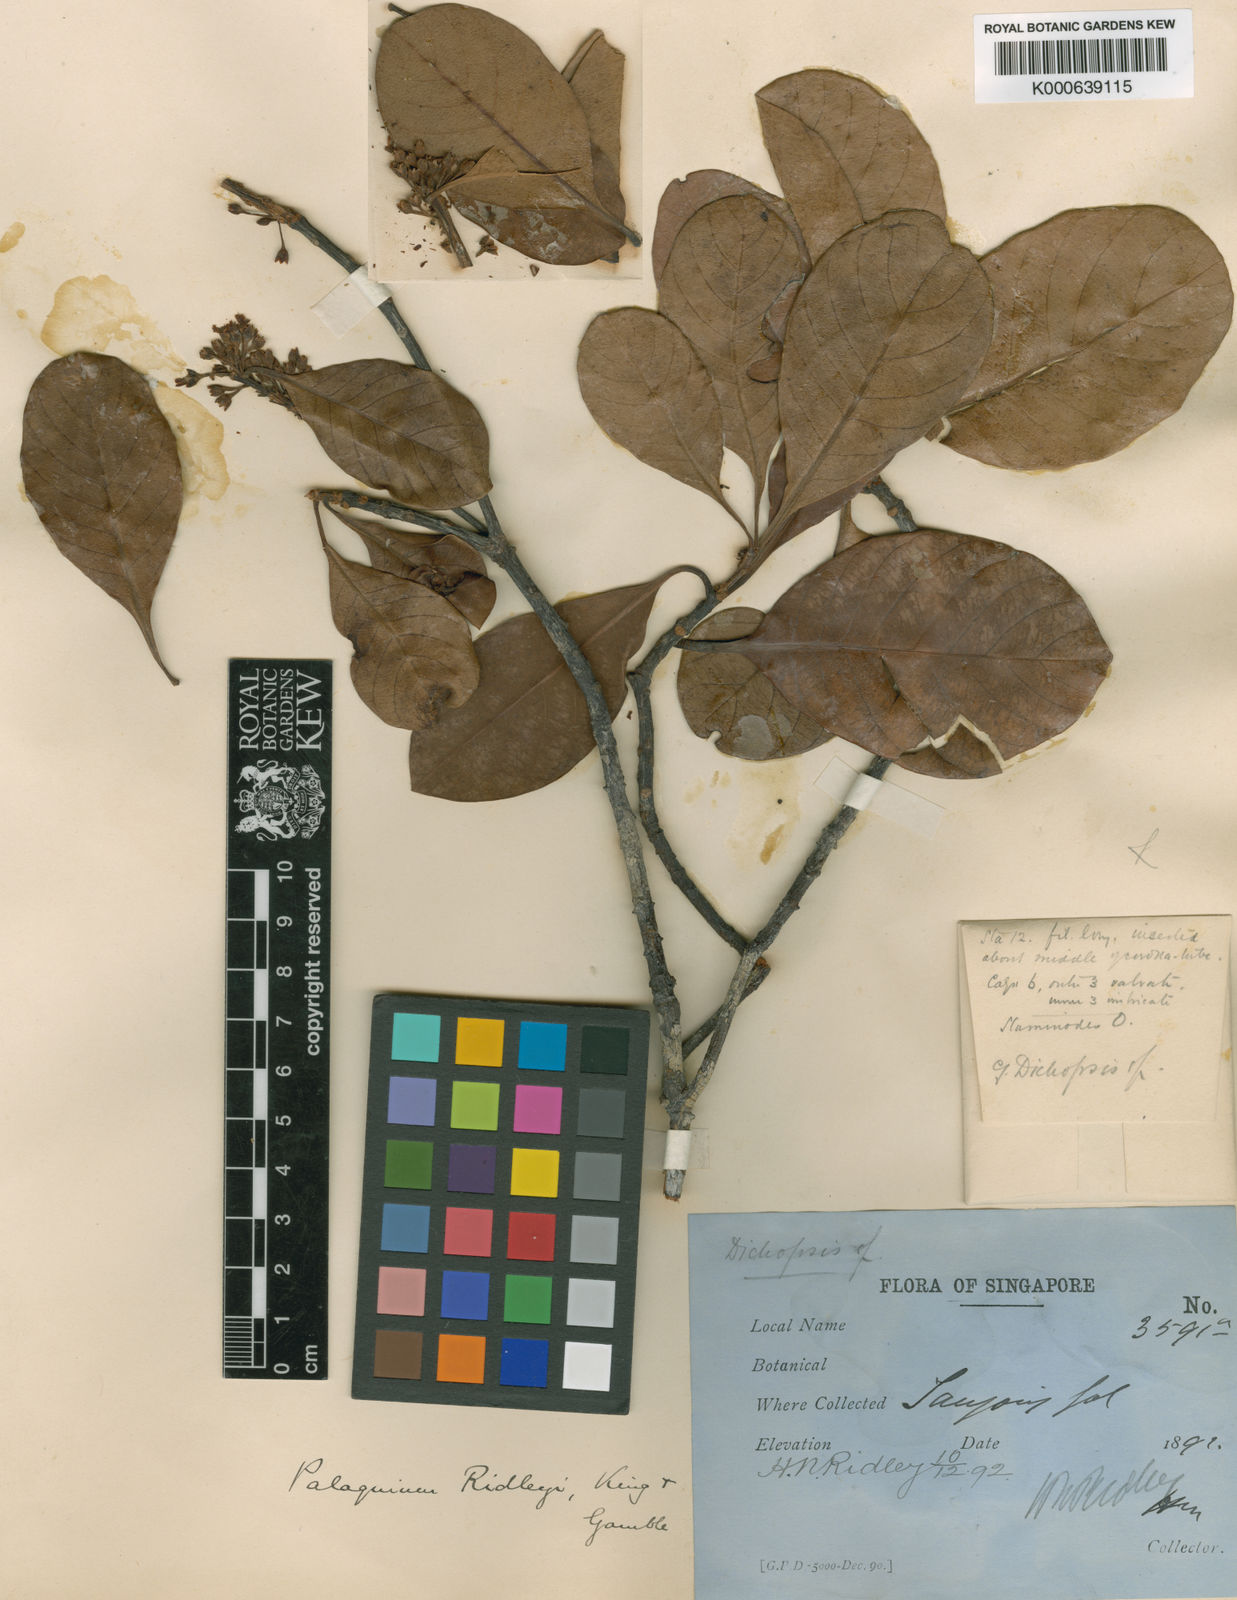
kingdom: Plantae
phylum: Tracheophyta
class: Magnoliopsida
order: Ericales
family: Sapotaceae
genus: Palaquium
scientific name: Palaquium ridleyi
